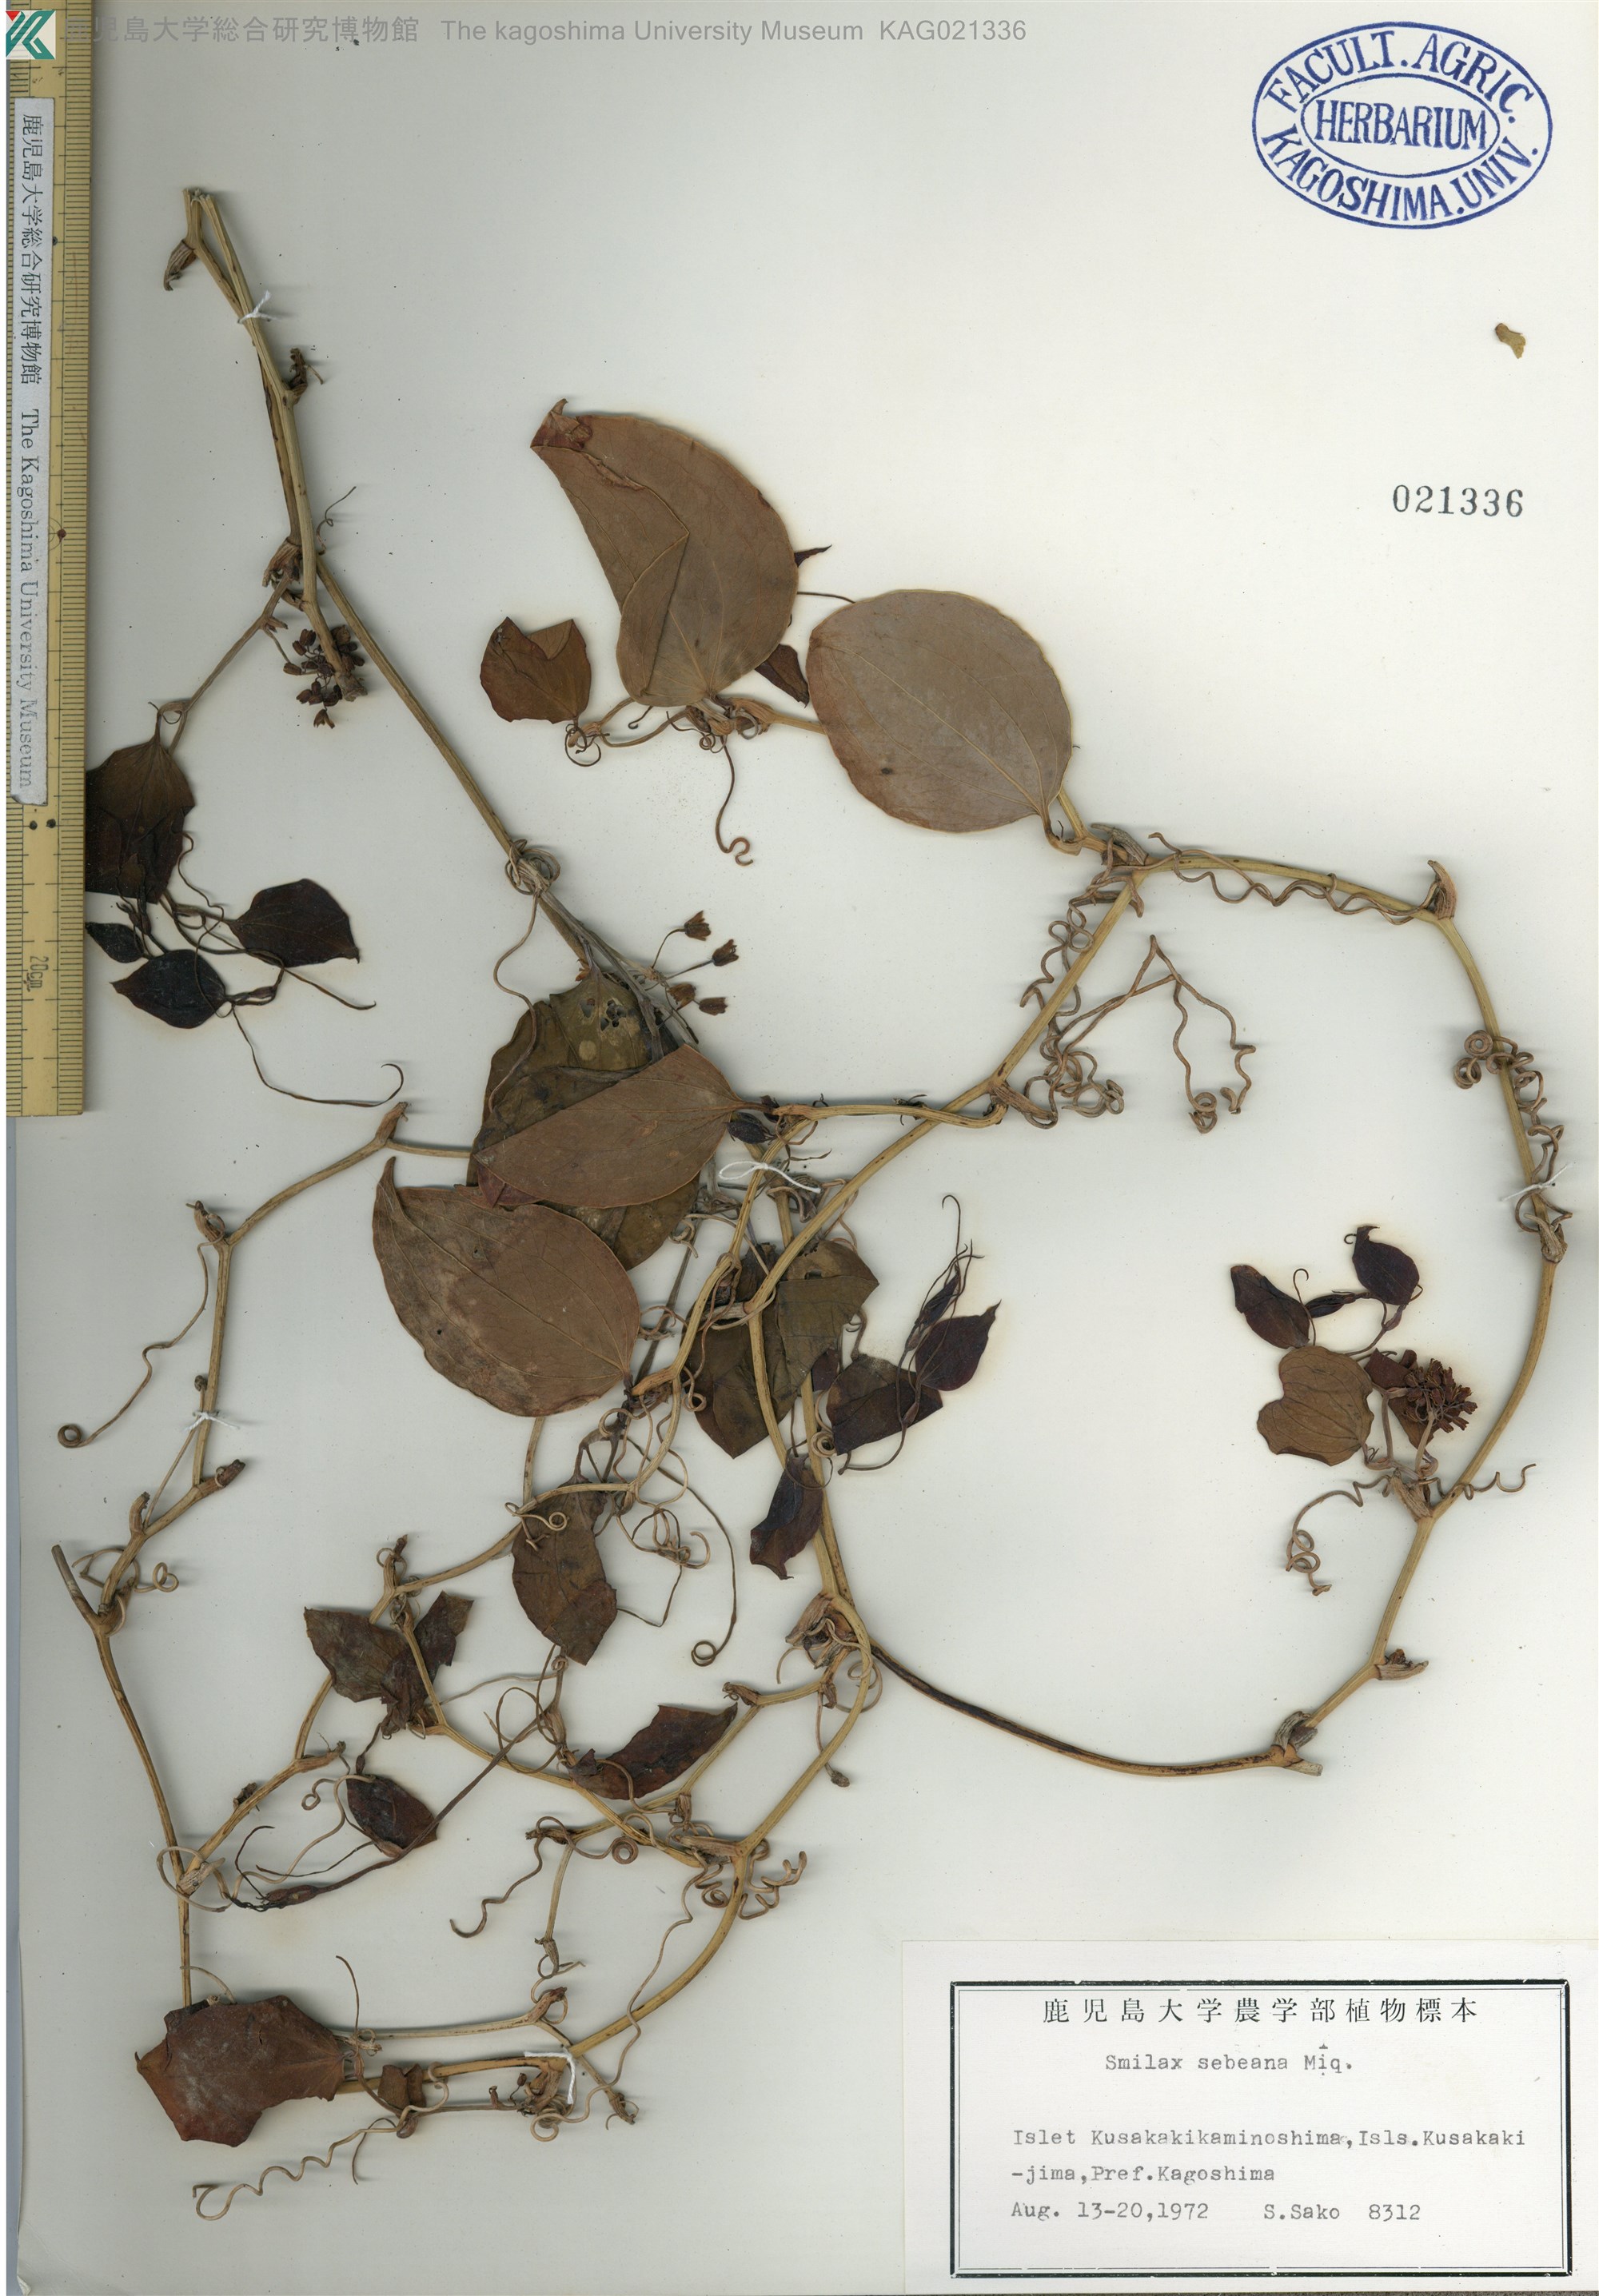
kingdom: Plantae
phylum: Tracheophyta
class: Liliopsida
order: Liliales
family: Smilacaceae
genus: Smilax
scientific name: Smilax sebeana
